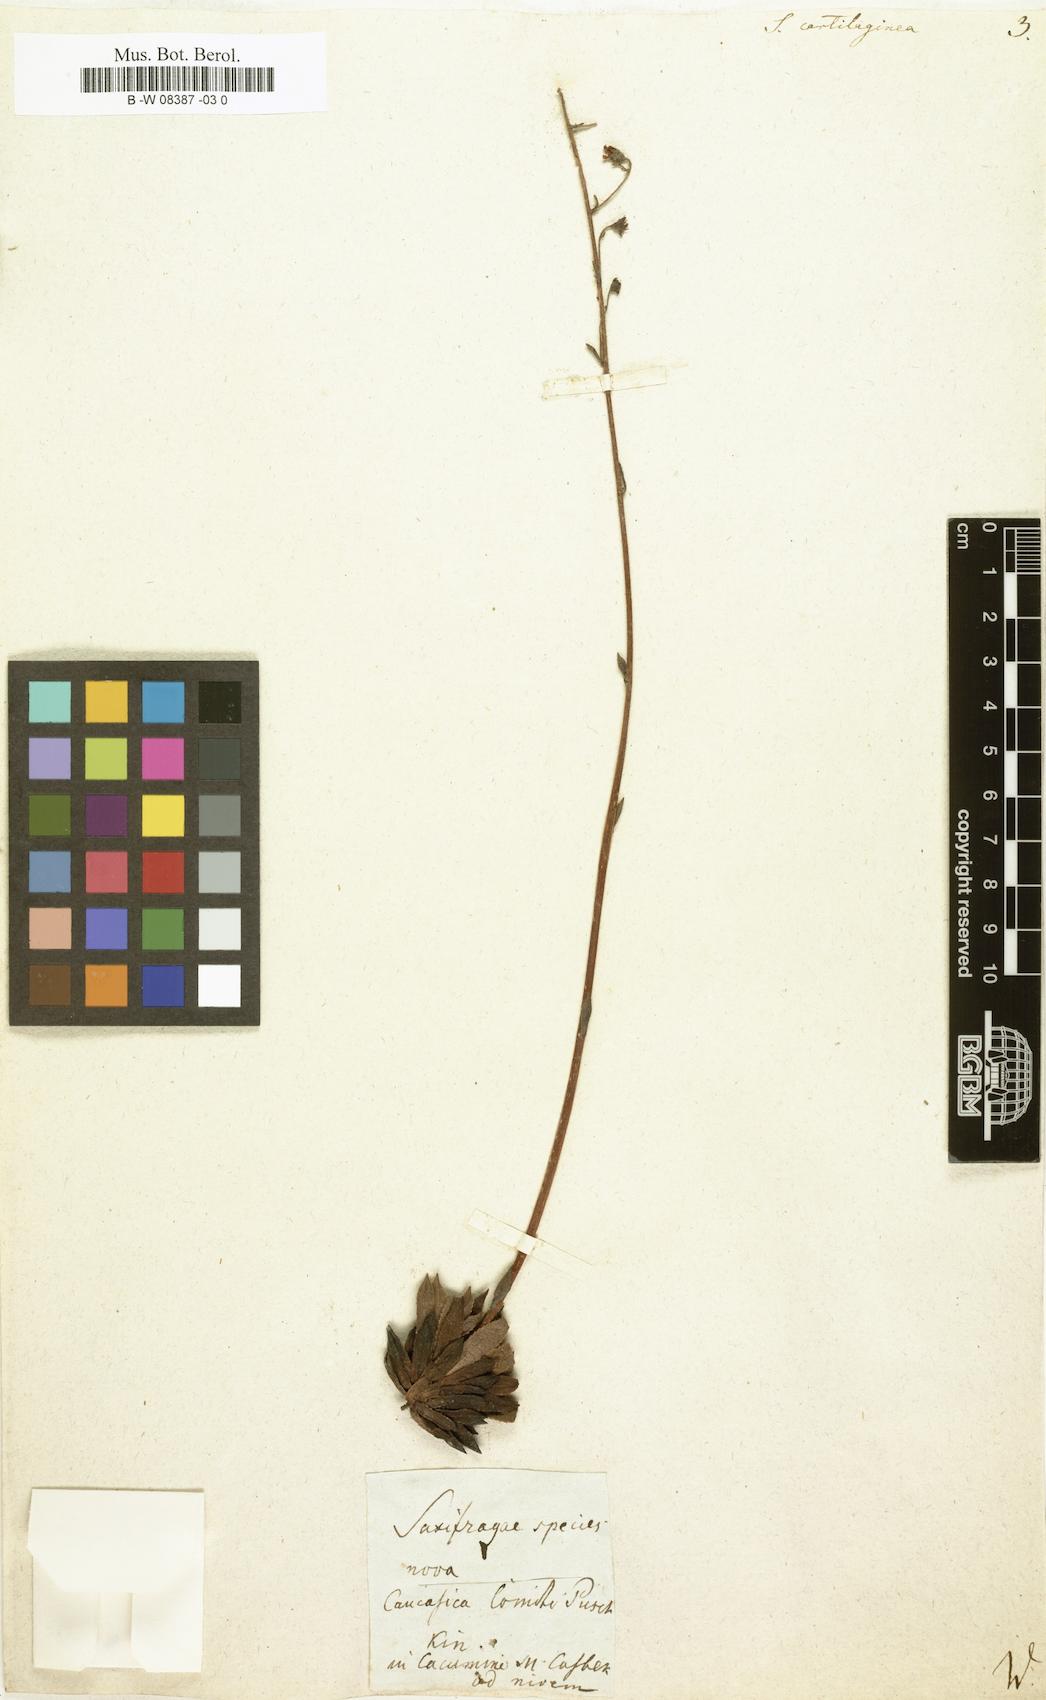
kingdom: Plantae
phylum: Tracheophyta
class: Magnoliopsida
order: Saxifragales
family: Saxifragaceae
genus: Saxifraga
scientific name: Saxifraga paniculata
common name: Livelong saxifrage
